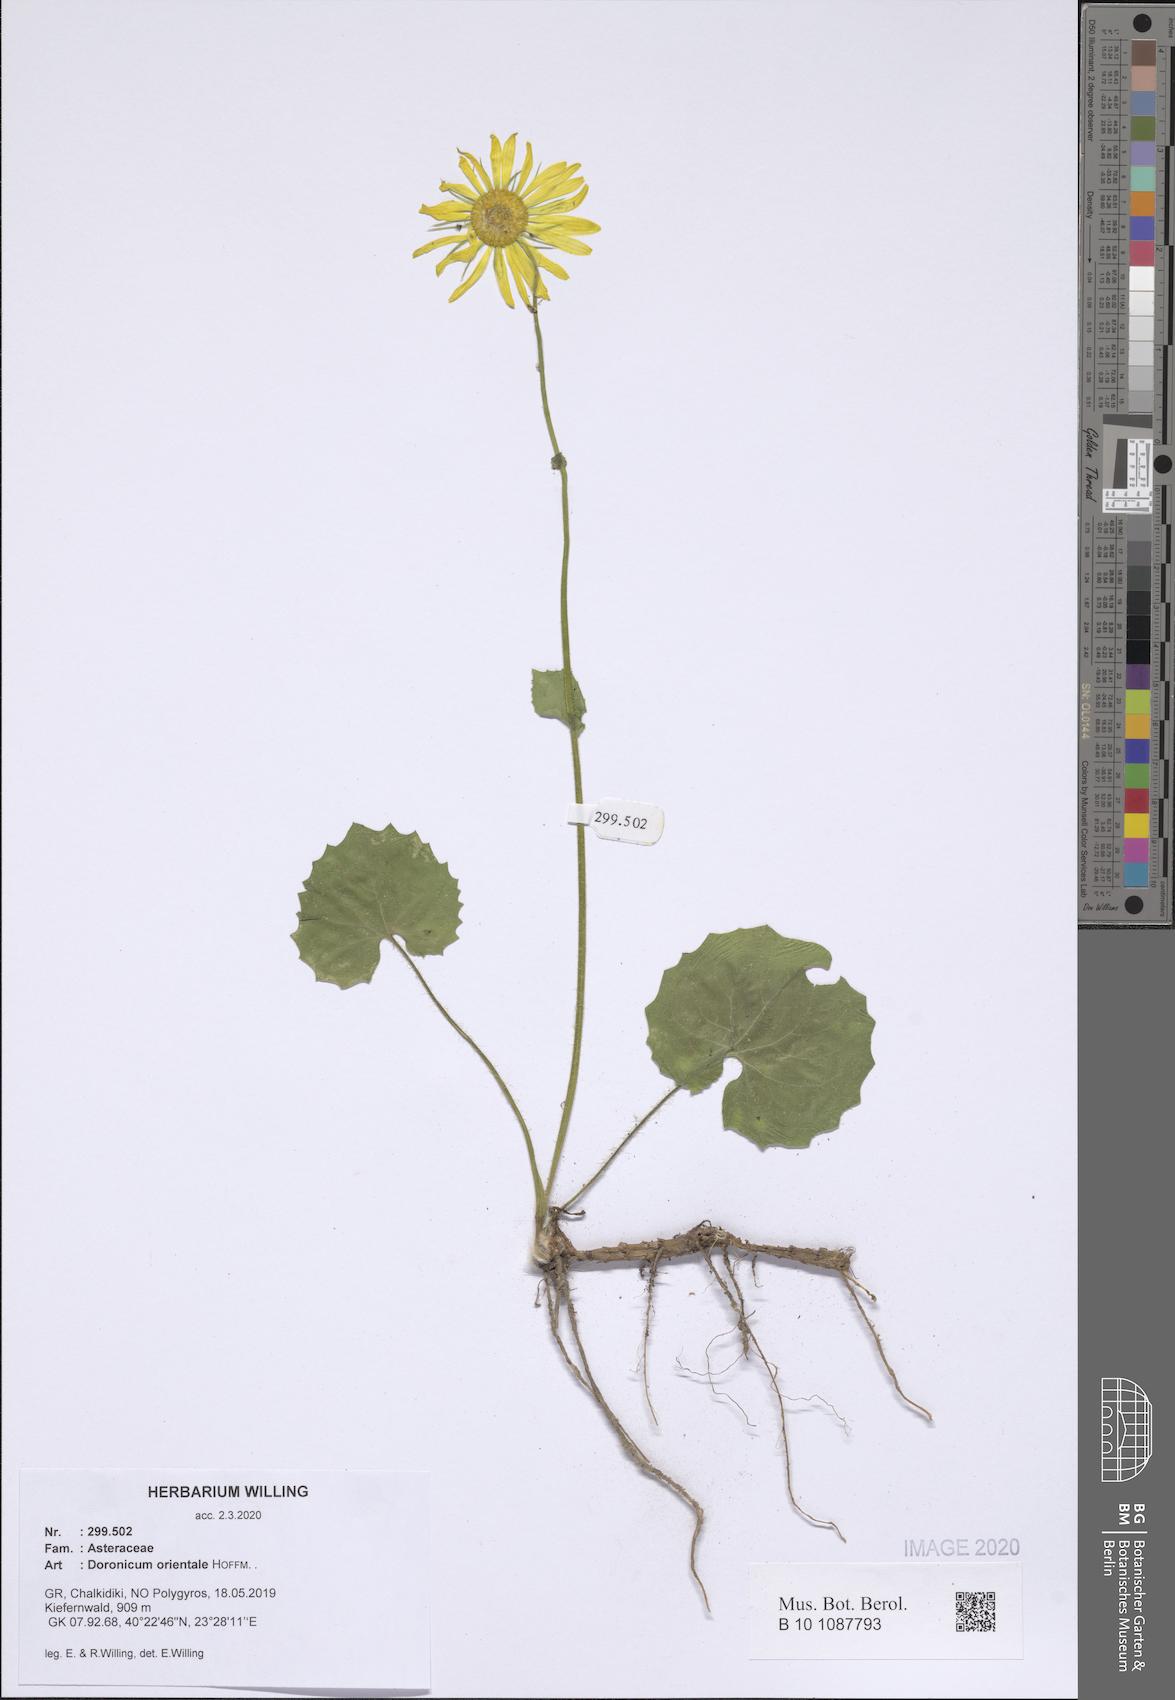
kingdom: Plantae
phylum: Tracheophyta
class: Magnoliopsida
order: Asterales
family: Asteraceae
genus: Doronicum
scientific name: Doronicum orientale
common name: Oriental leopard's-bane
